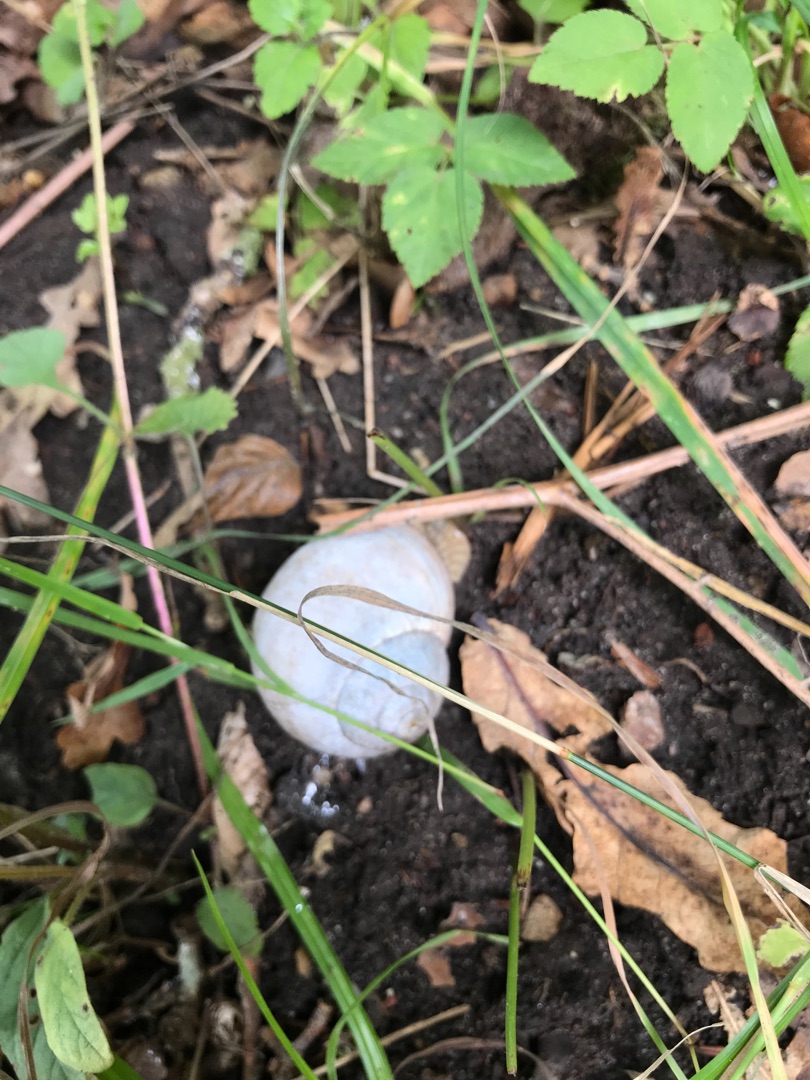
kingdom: Animalia
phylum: Mollusca
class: Gastropoda
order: Stylommatophora
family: Helicidae
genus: Helix
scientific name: Helix pomatia
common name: Vinbjergsnegl
